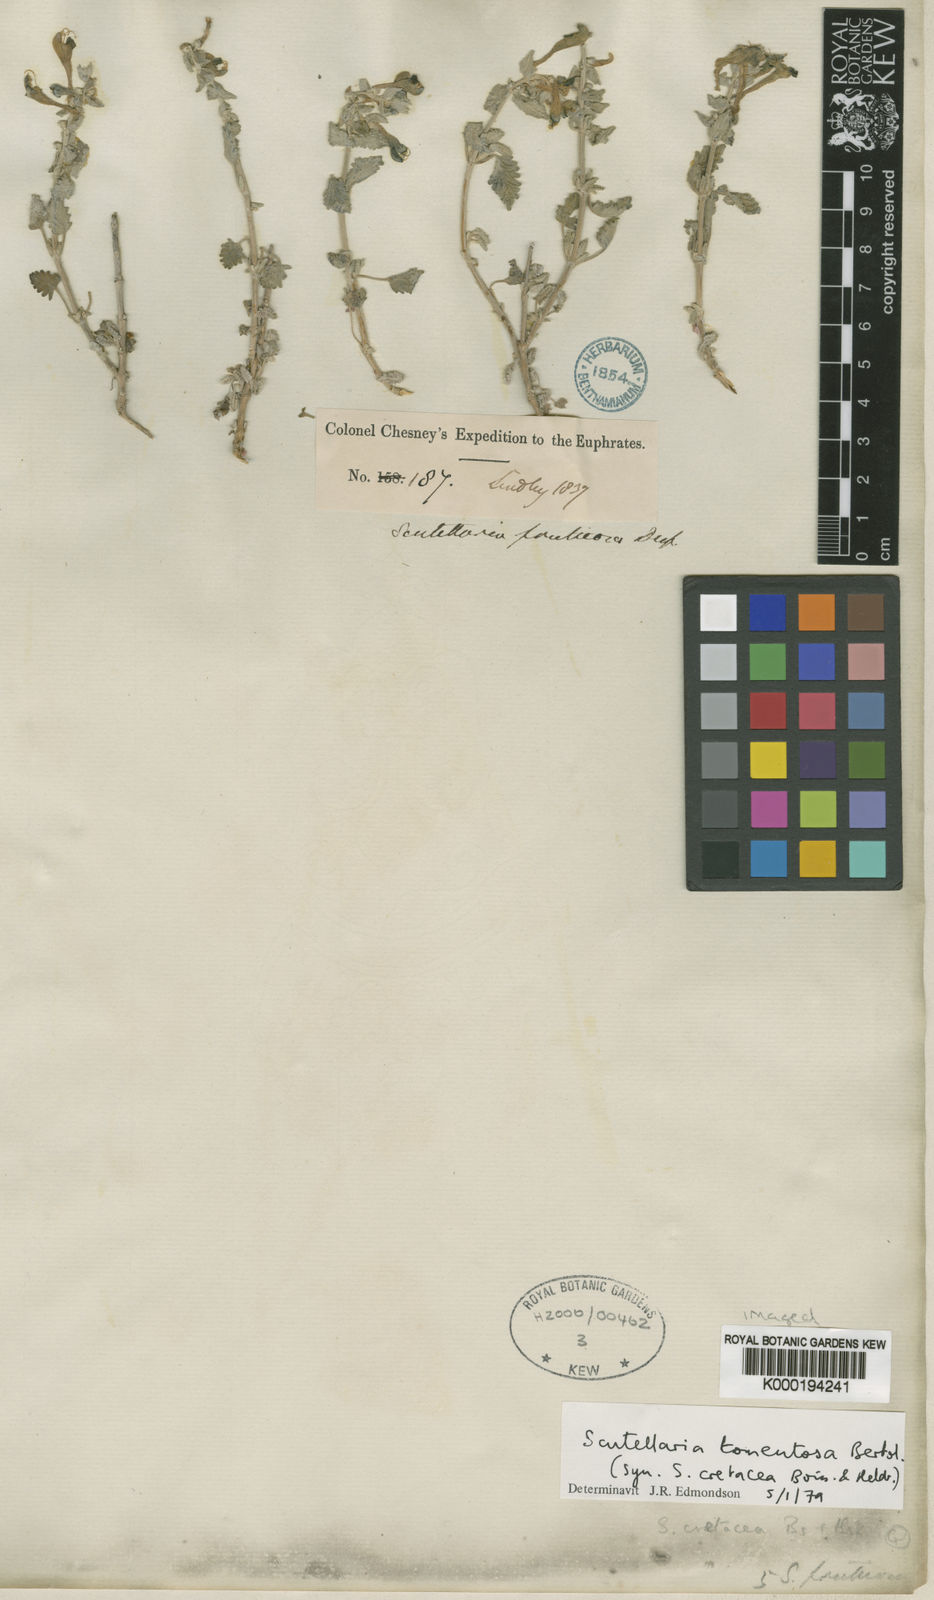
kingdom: Plantae
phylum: Tracheophyta
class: Magnoliopsida
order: Lamiales
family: Lamiaceae
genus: Scutellaria
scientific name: Scutellaria tomentosa
